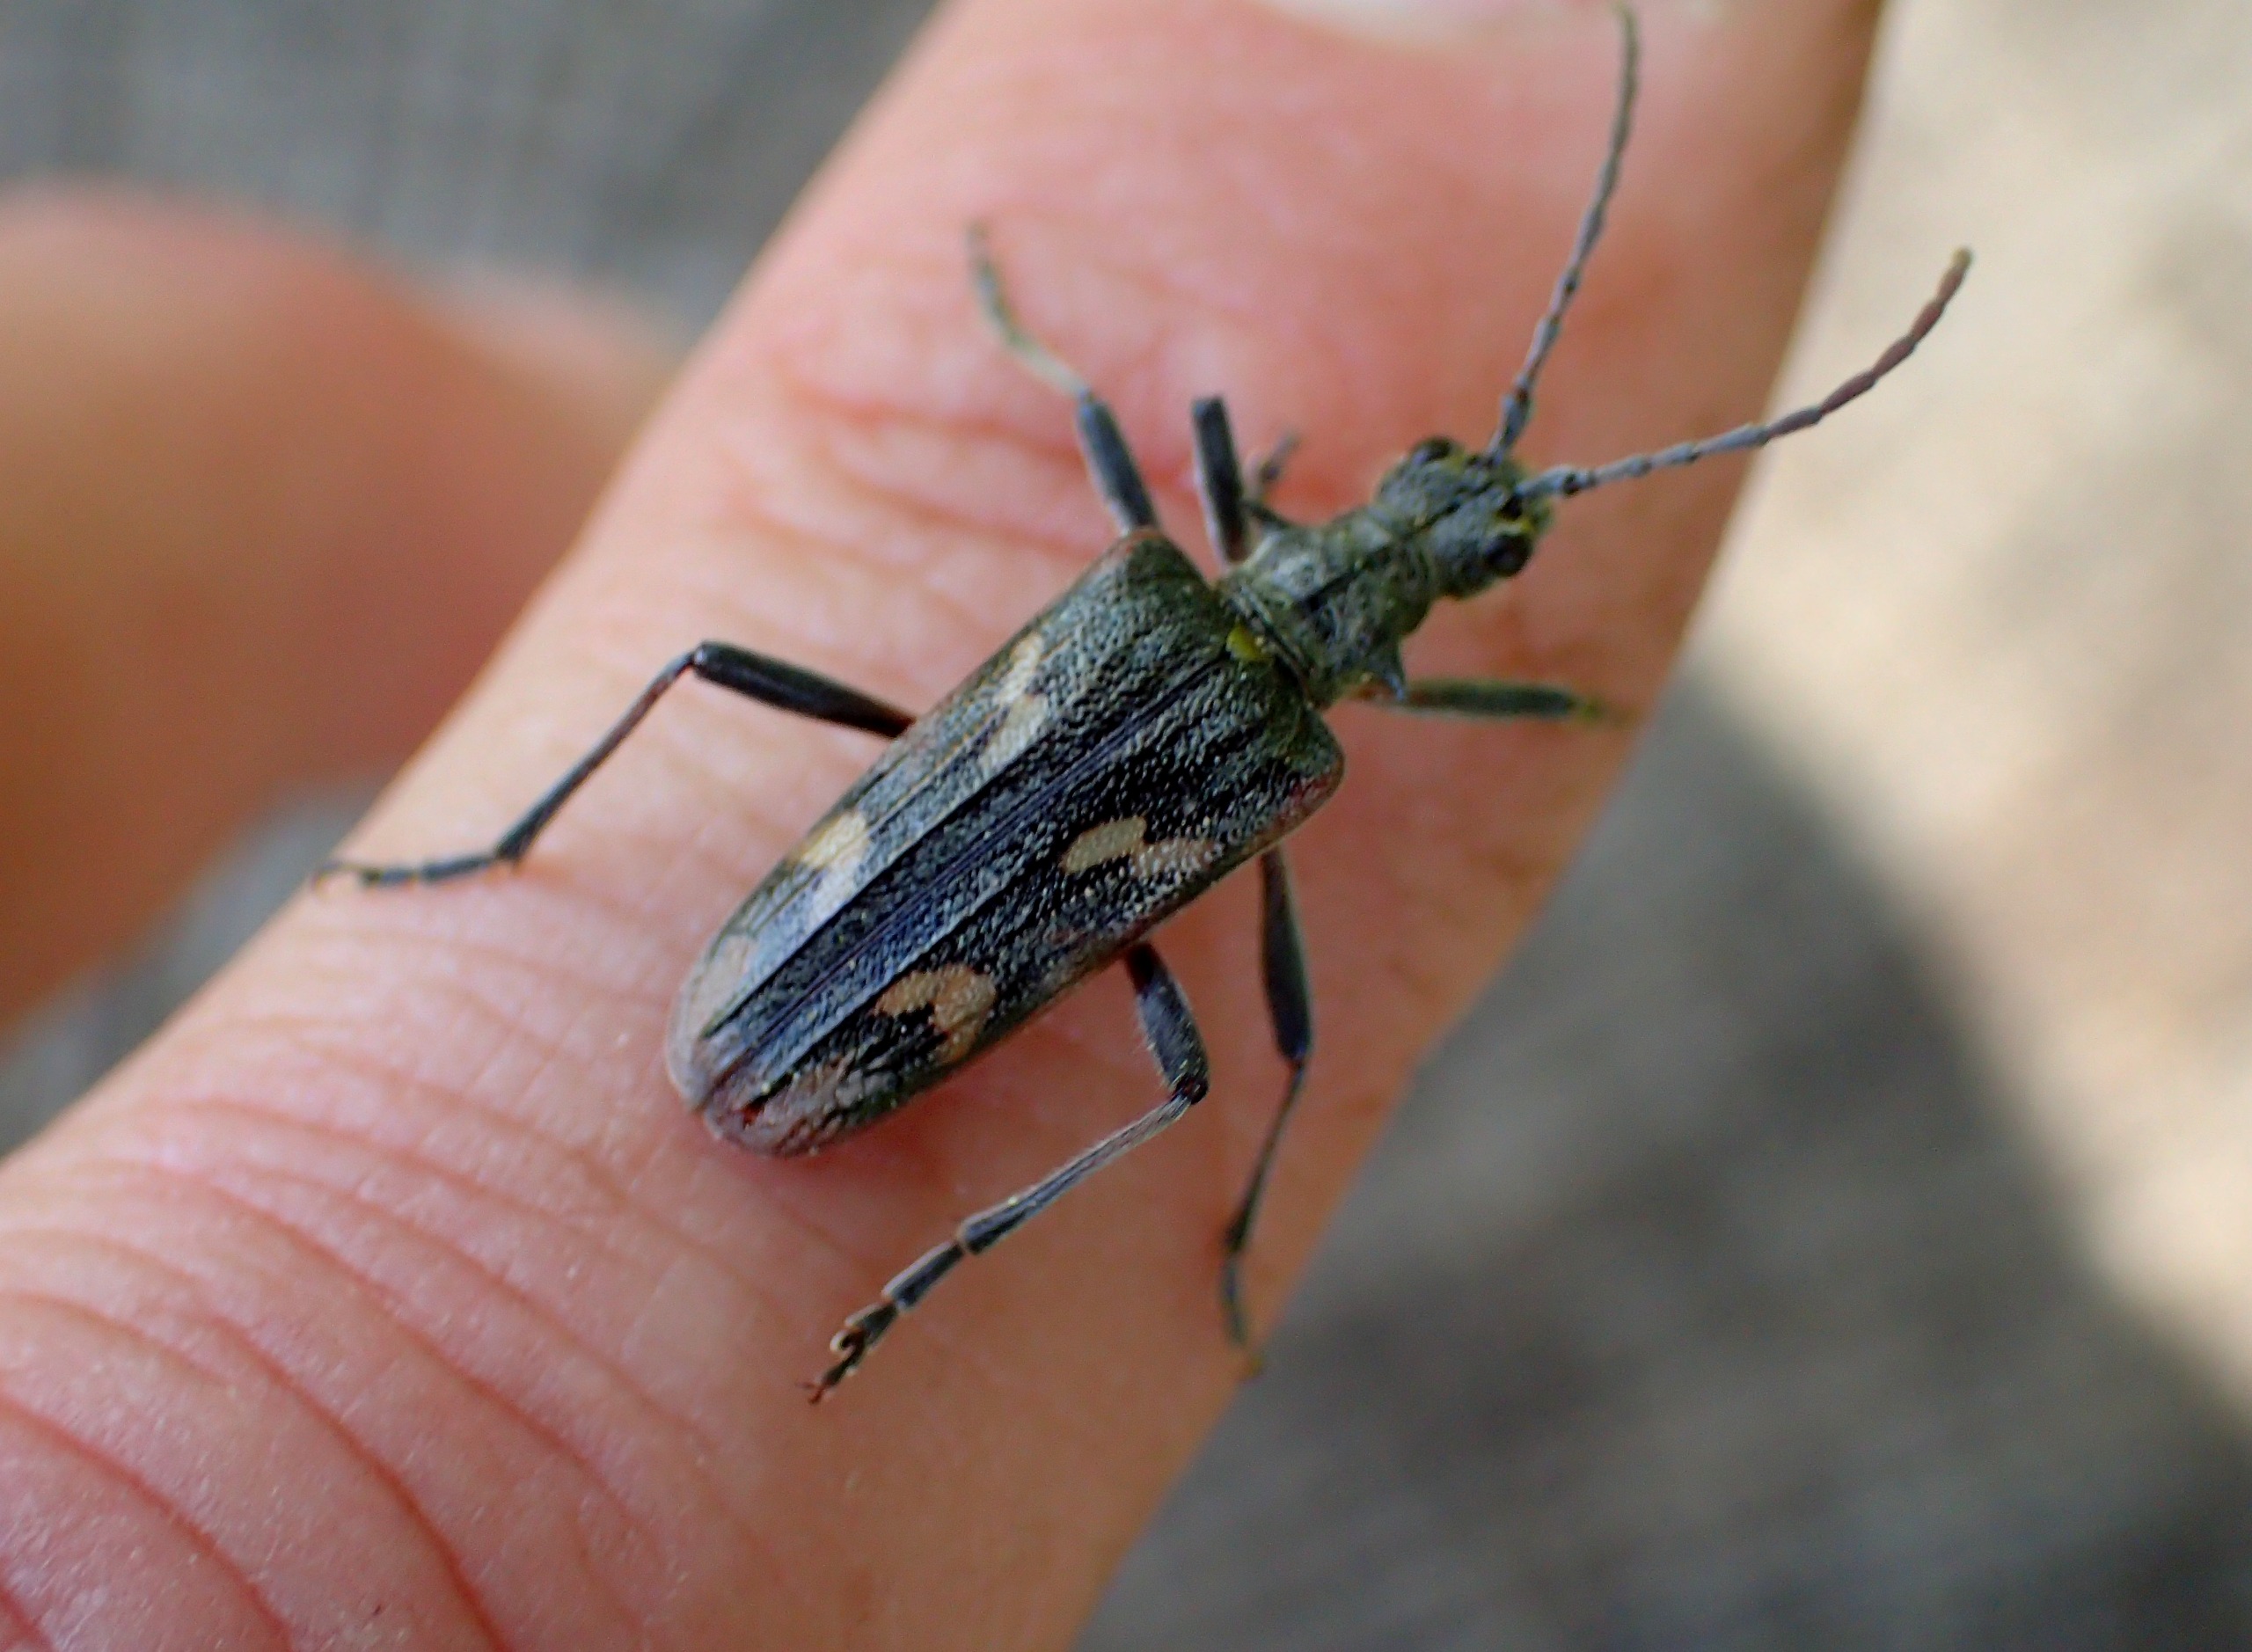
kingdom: Animalia
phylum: Arthropoda
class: Insecta
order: Coleoptera
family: Cerambycidae
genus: Rhagium
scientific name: Rhagium bifasciatum
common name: Båndet tandbuk
